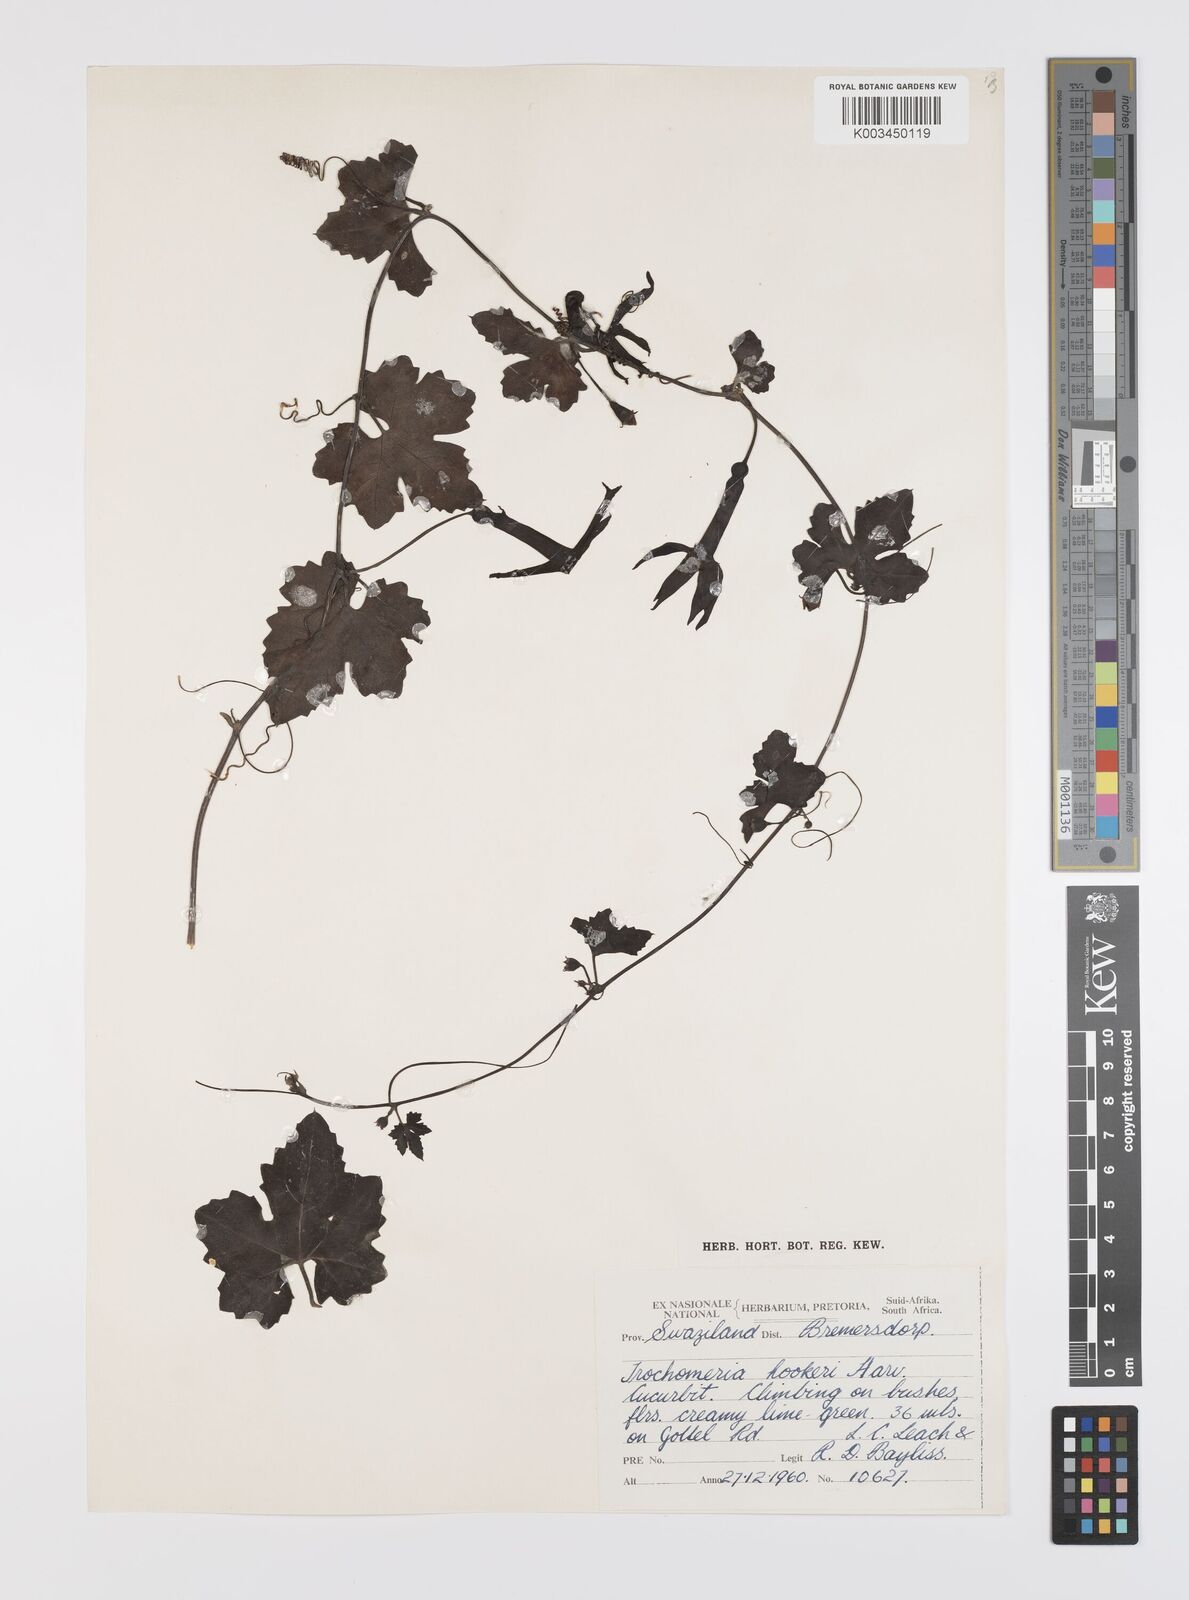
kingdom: Plantae
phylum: Tracheophyta
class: Magnoliopsida
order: Cucurbitales
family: Cucurbitaceae
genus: Trochomeria
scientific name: Trochomeria hookeri
